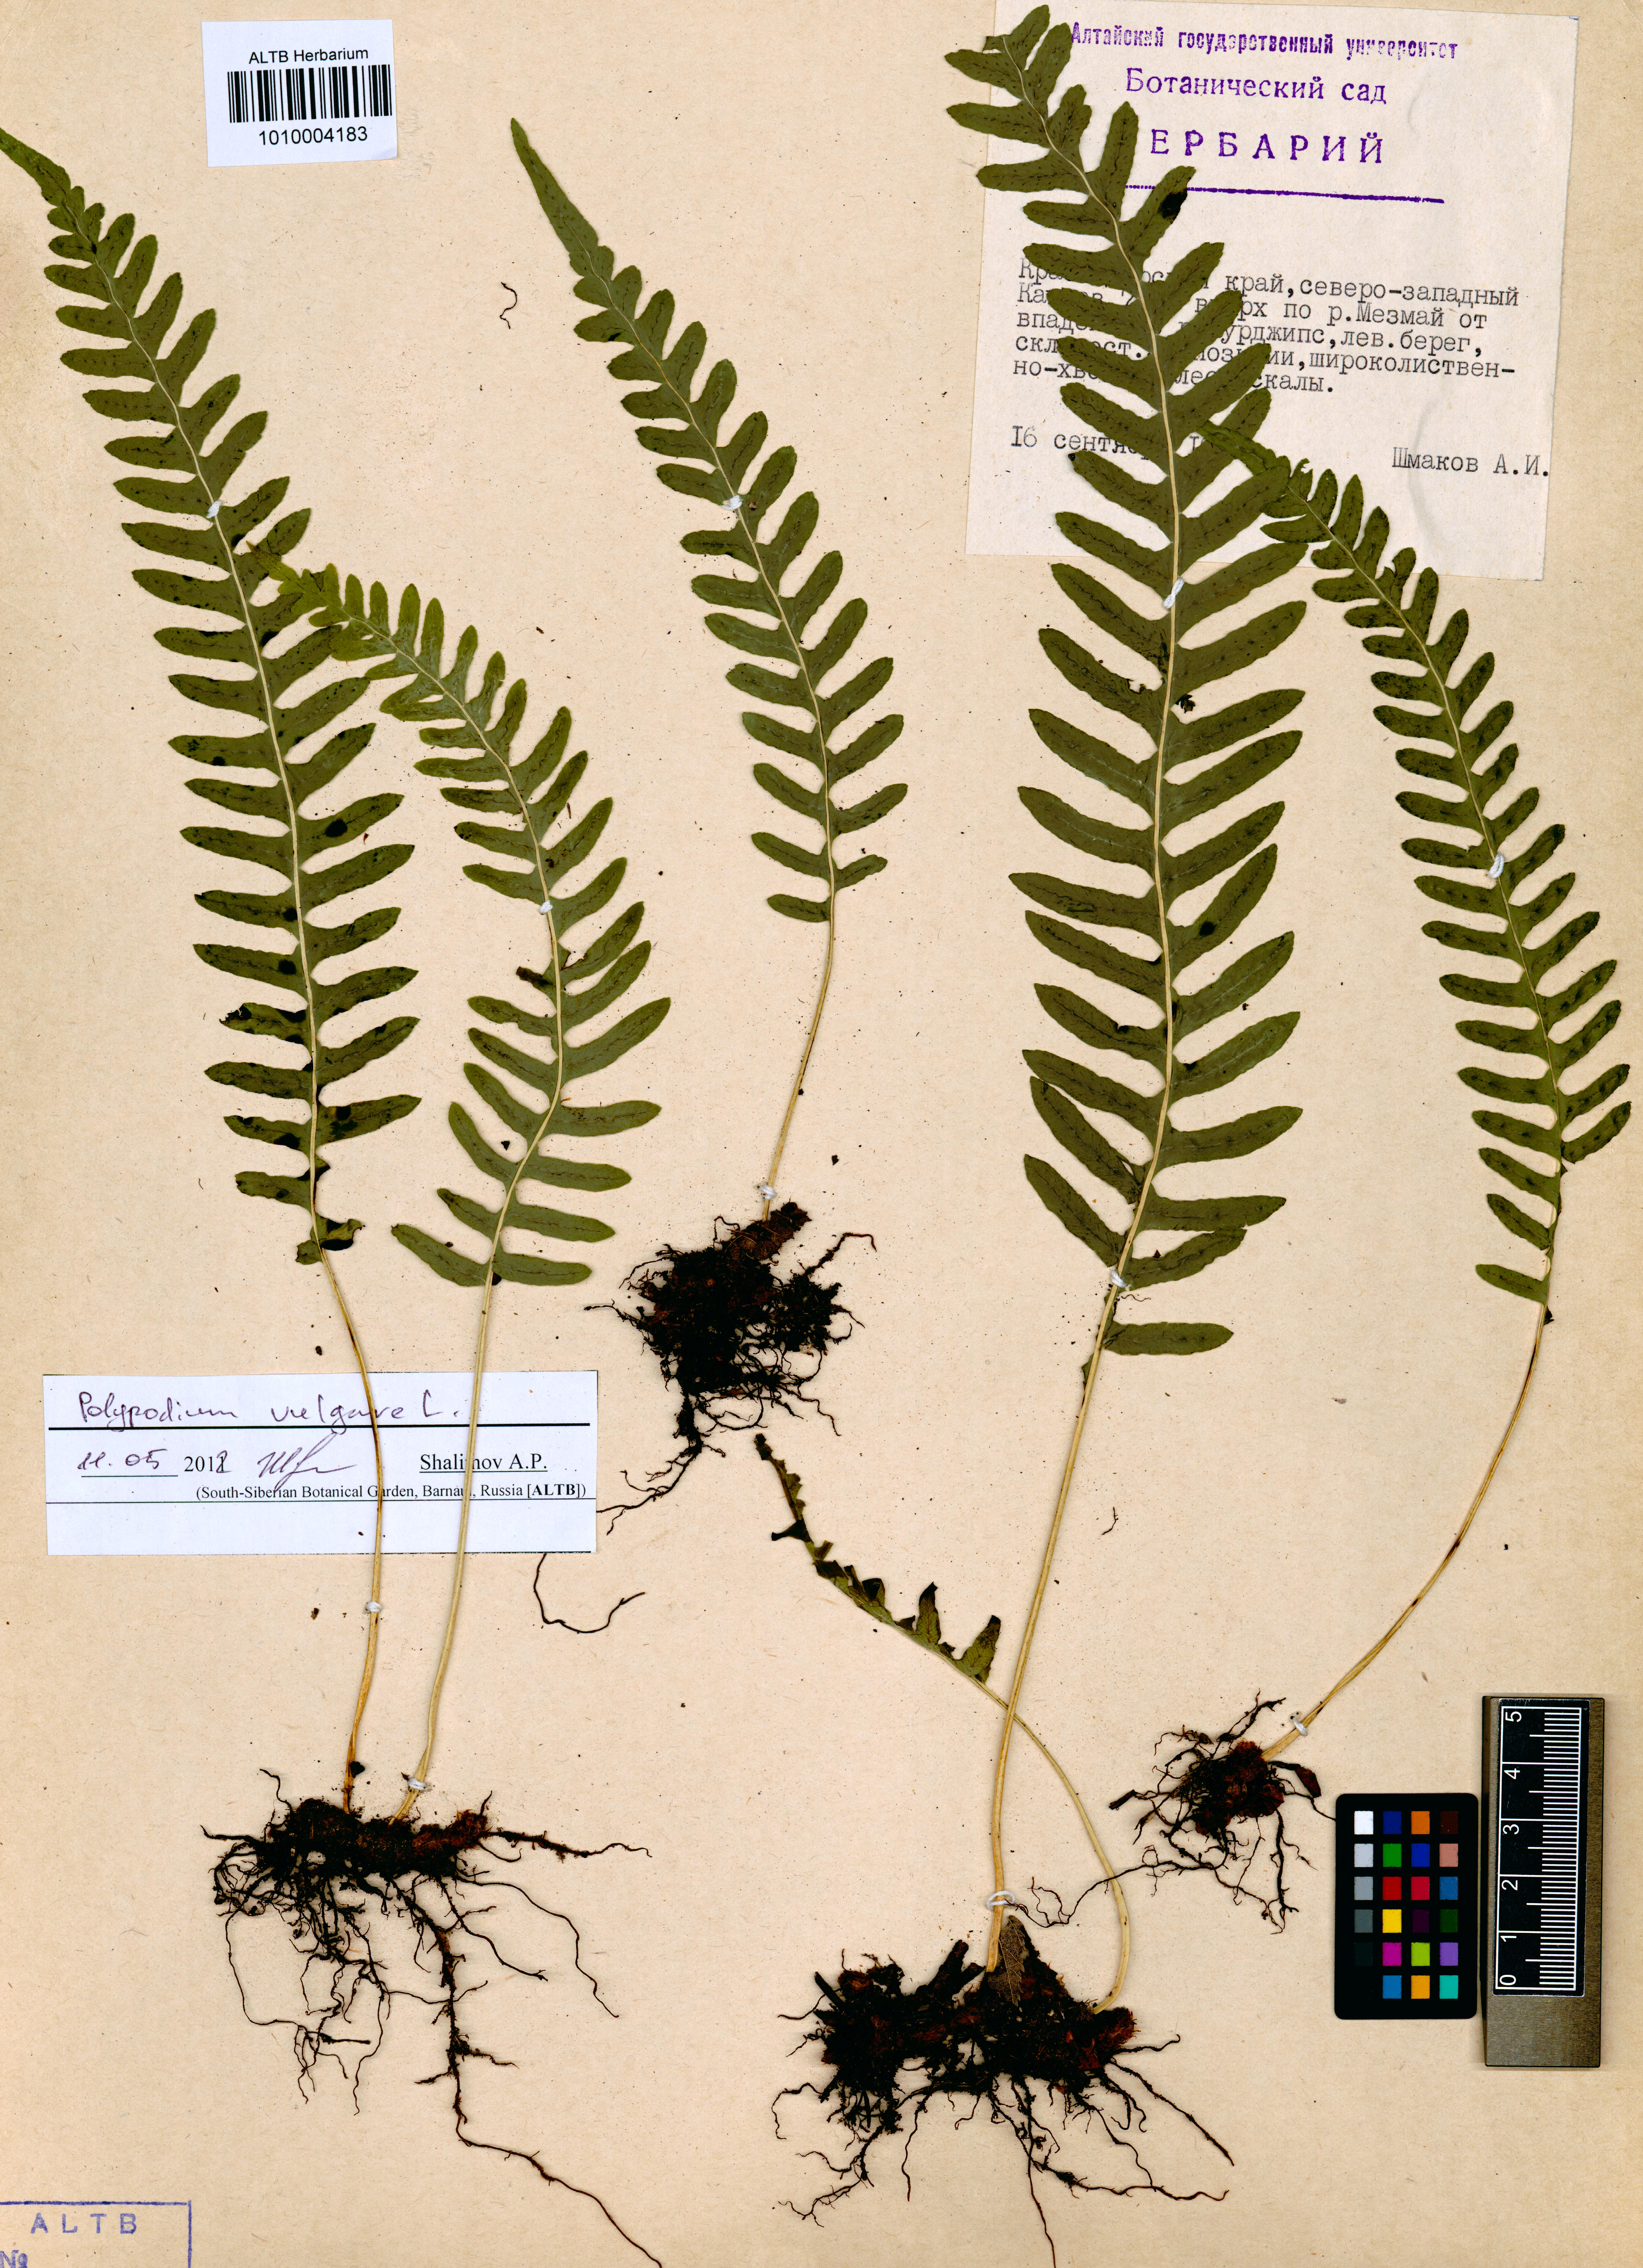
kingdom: Plantae
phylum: Tracheophyta
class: Polypodiopsida
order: Polypodiales
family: Polypodiaceae
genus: Polypodium
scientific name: Polypodium vulgare
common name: Common polypody
